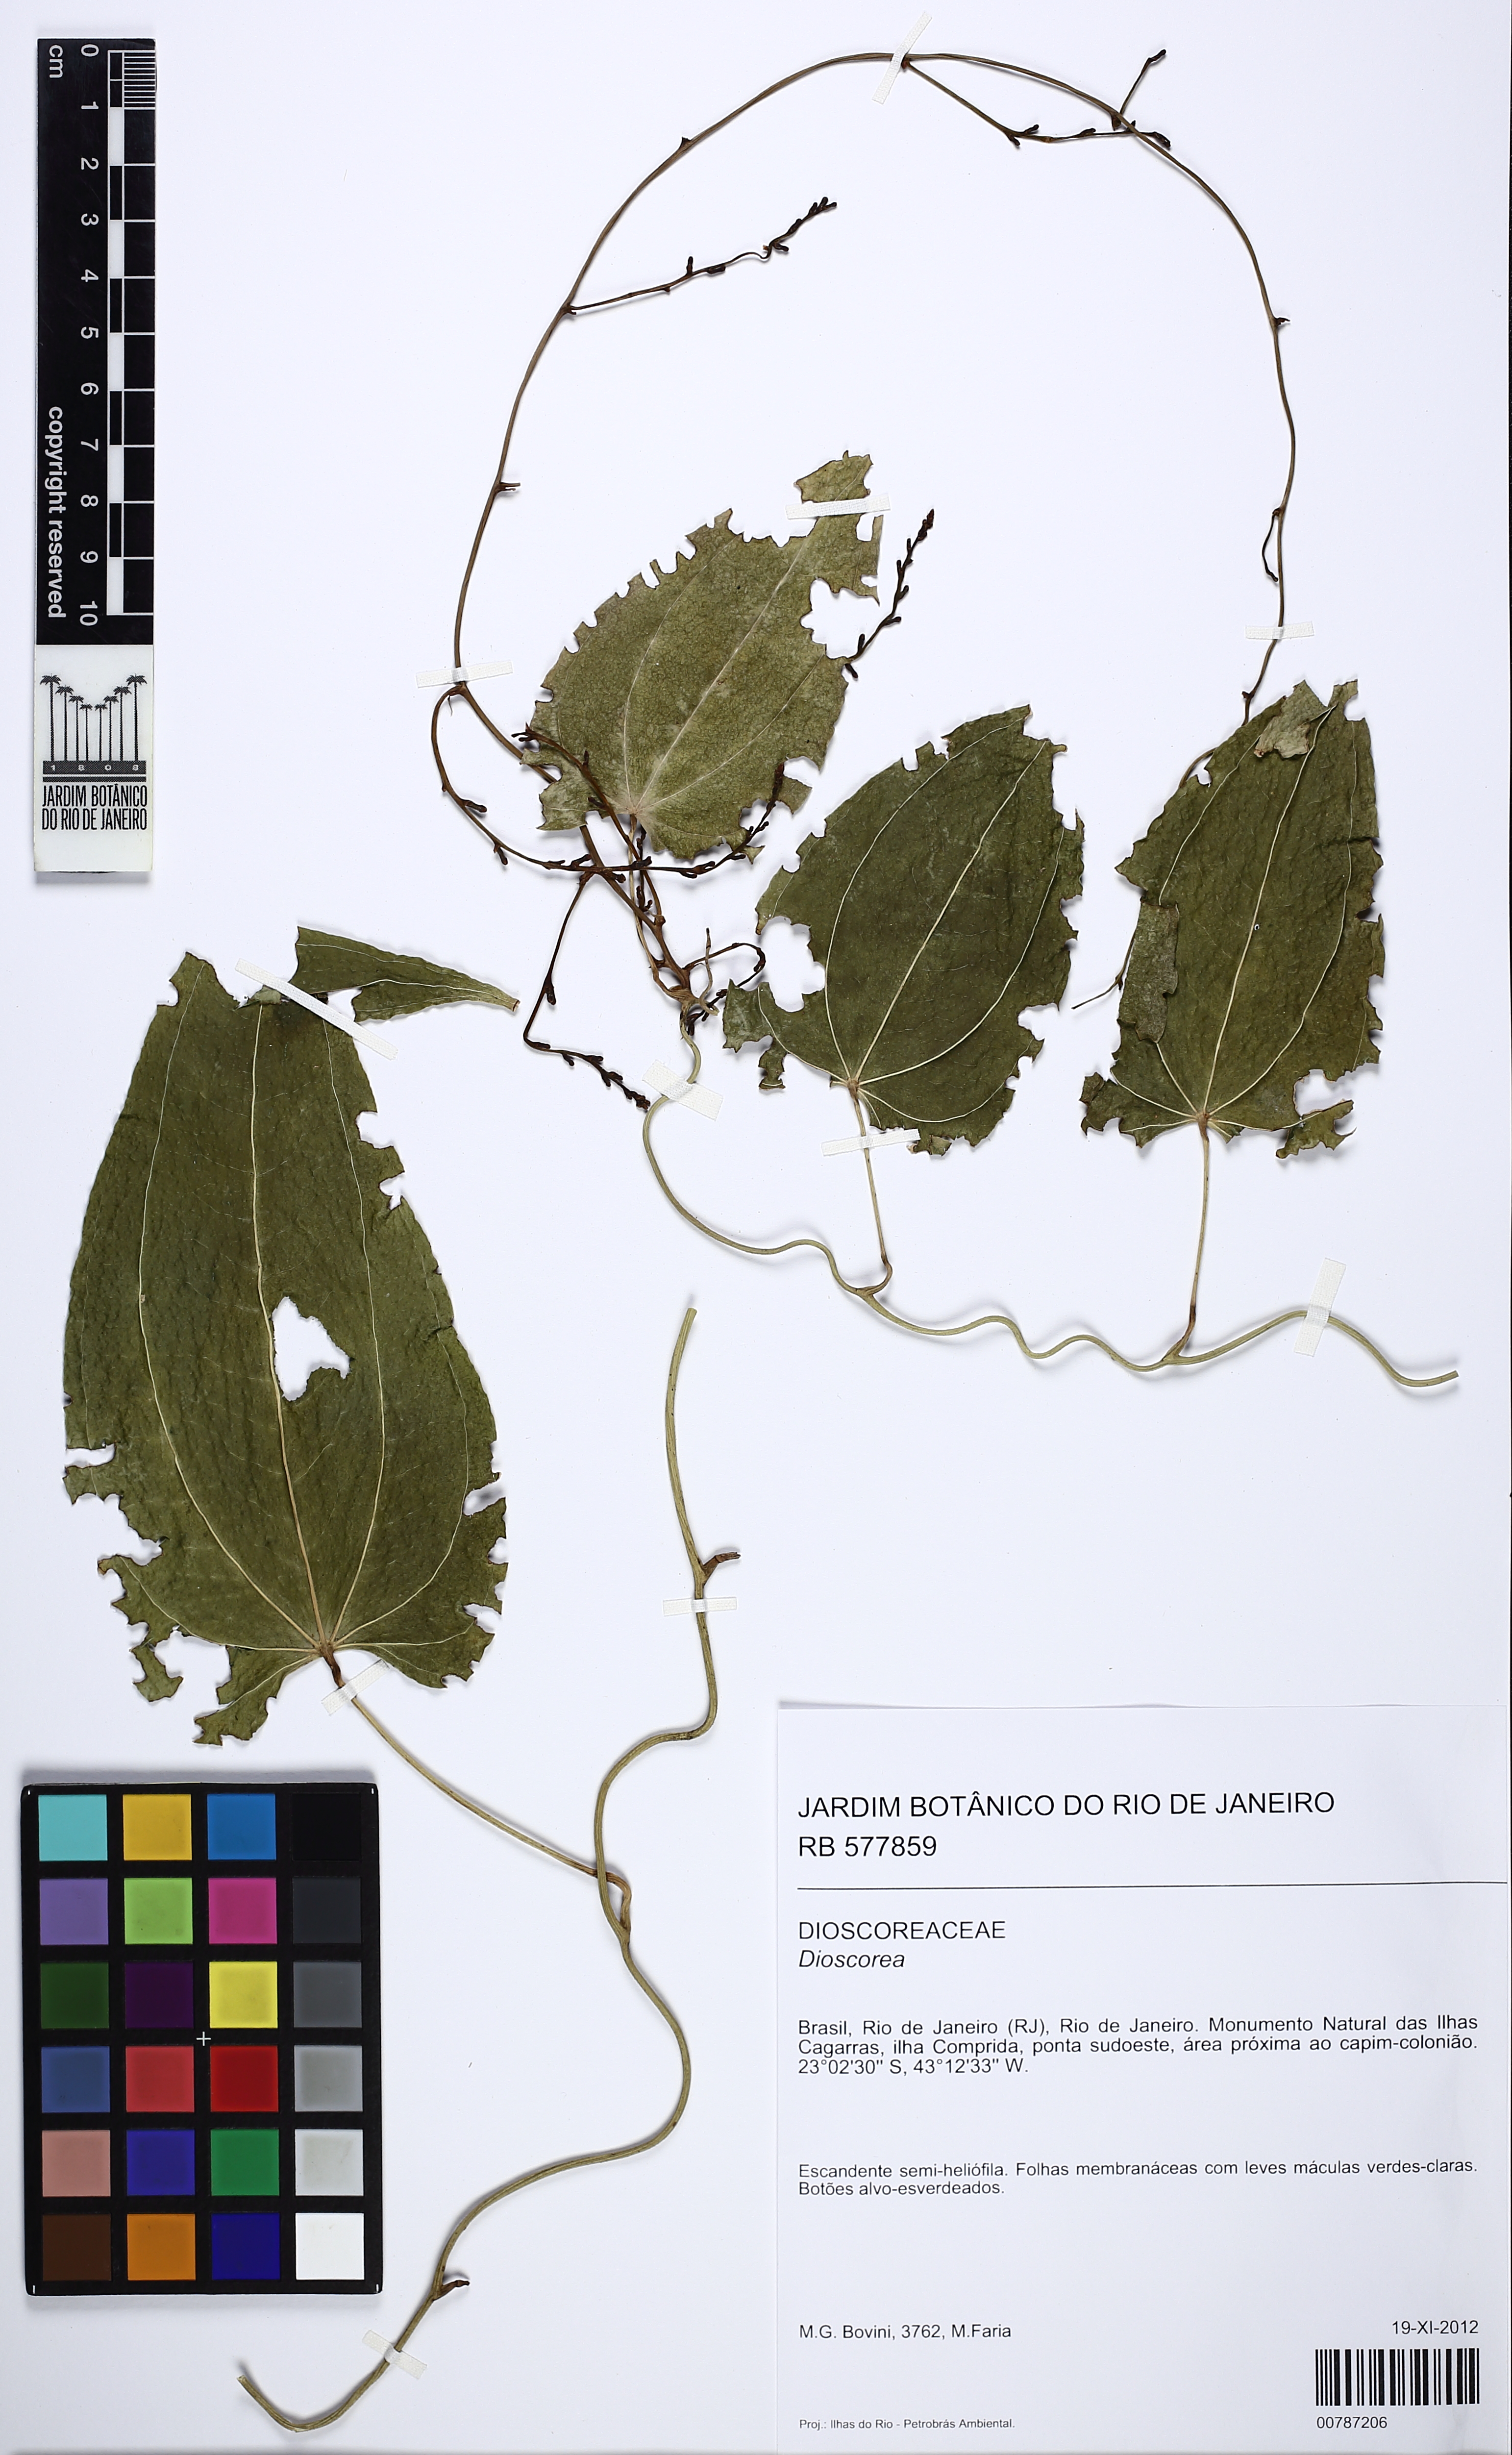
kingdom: Plantae
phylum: Tracheophyta
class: Liliopsida
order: Dioscoreales
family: Dioscoreaceae
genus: Dioscorea
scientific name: Dioscorea multiflora
